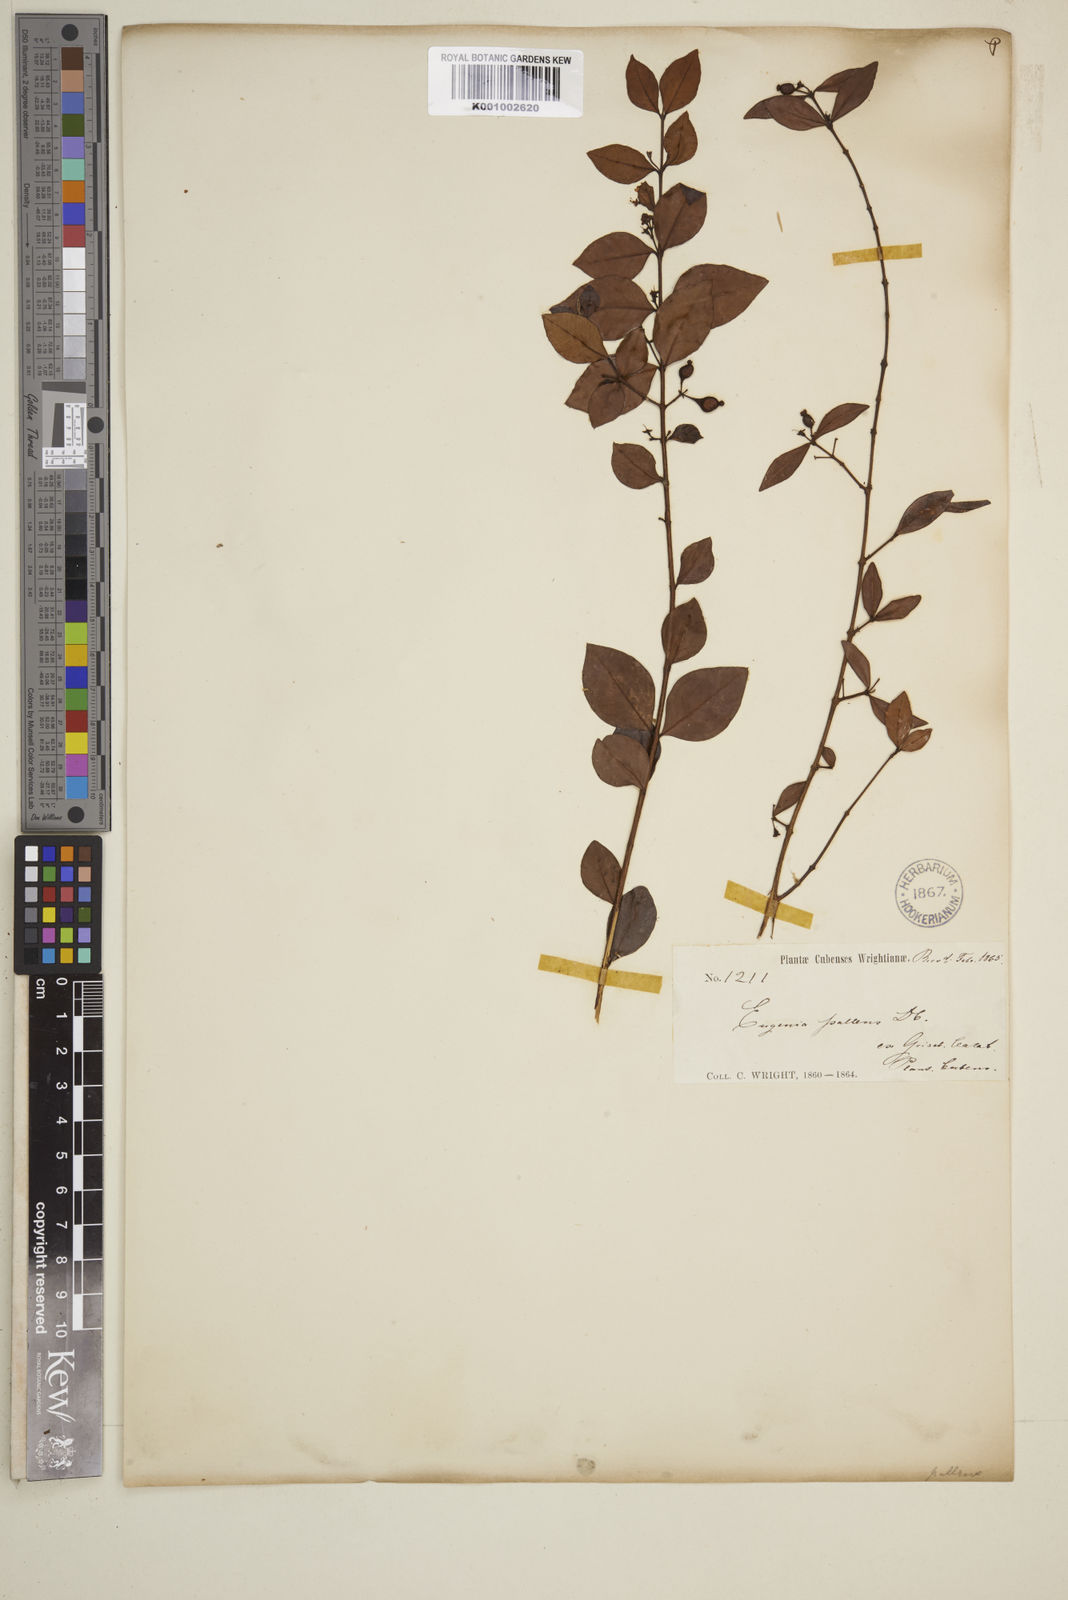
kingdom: Plantae
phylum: Tracheophyta
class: Magnoliopsida
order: Myrtales
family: Myrtaceae
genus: Myrcia
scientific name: Myrcia neopallens
